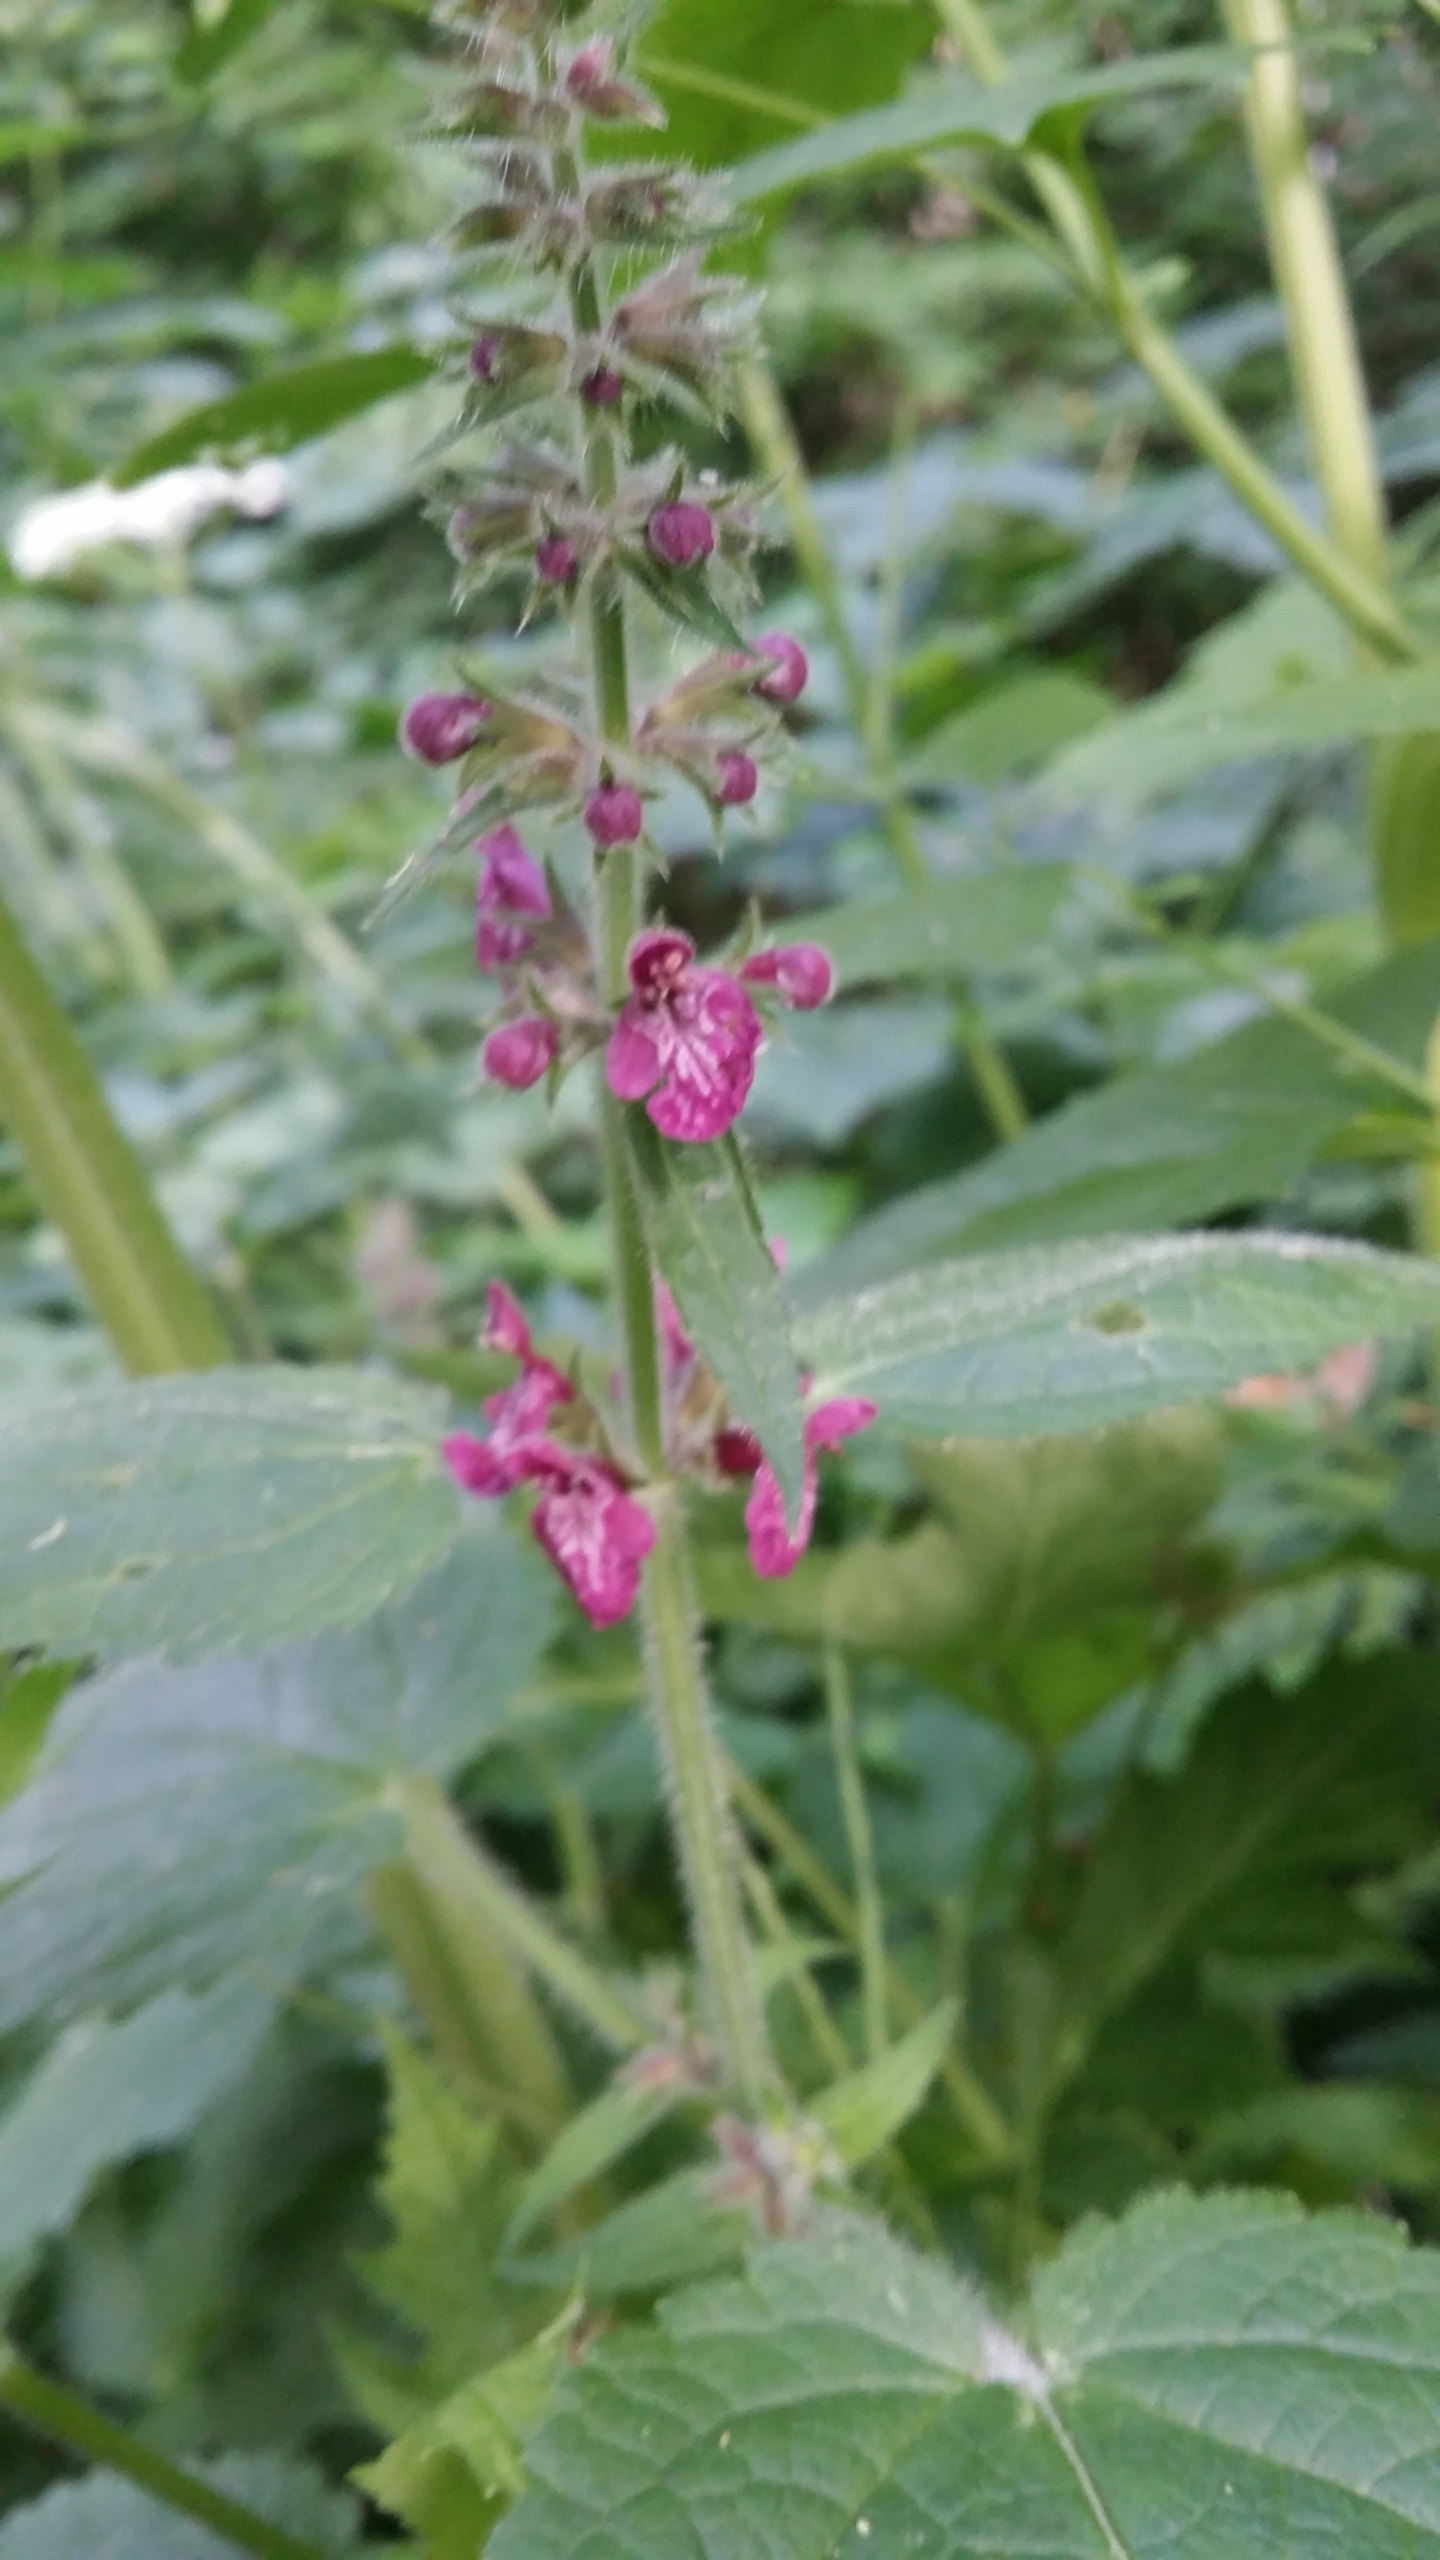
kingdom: Plantae
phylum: Tracheophyta
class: Magnoliopsida
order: Lamiales
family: Lamiaceae
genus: Stachys
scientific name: Stachys sylvatica
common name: Skov-galtetand
